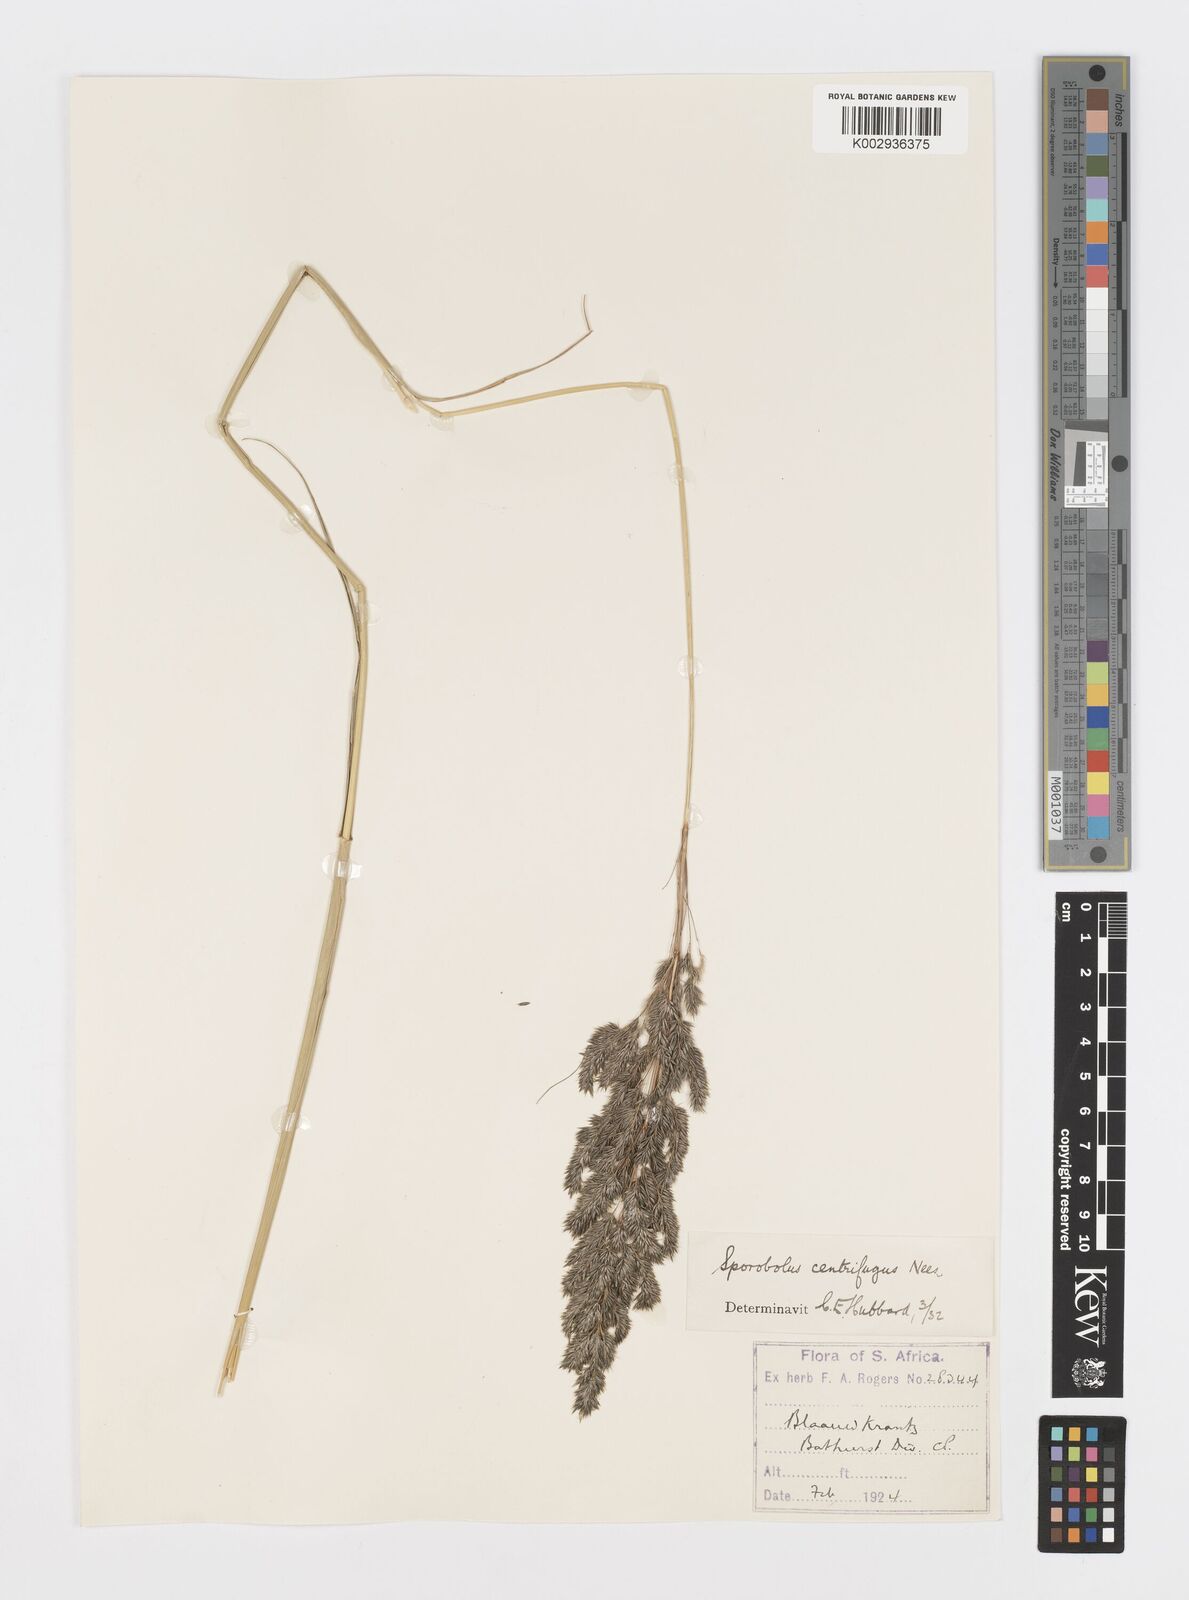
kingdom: Plantae
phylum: Tracheophyta
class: Liliopsida
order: Poales
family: Poaceae
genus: Sporobolus
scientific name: Sporobolus centrifugus
